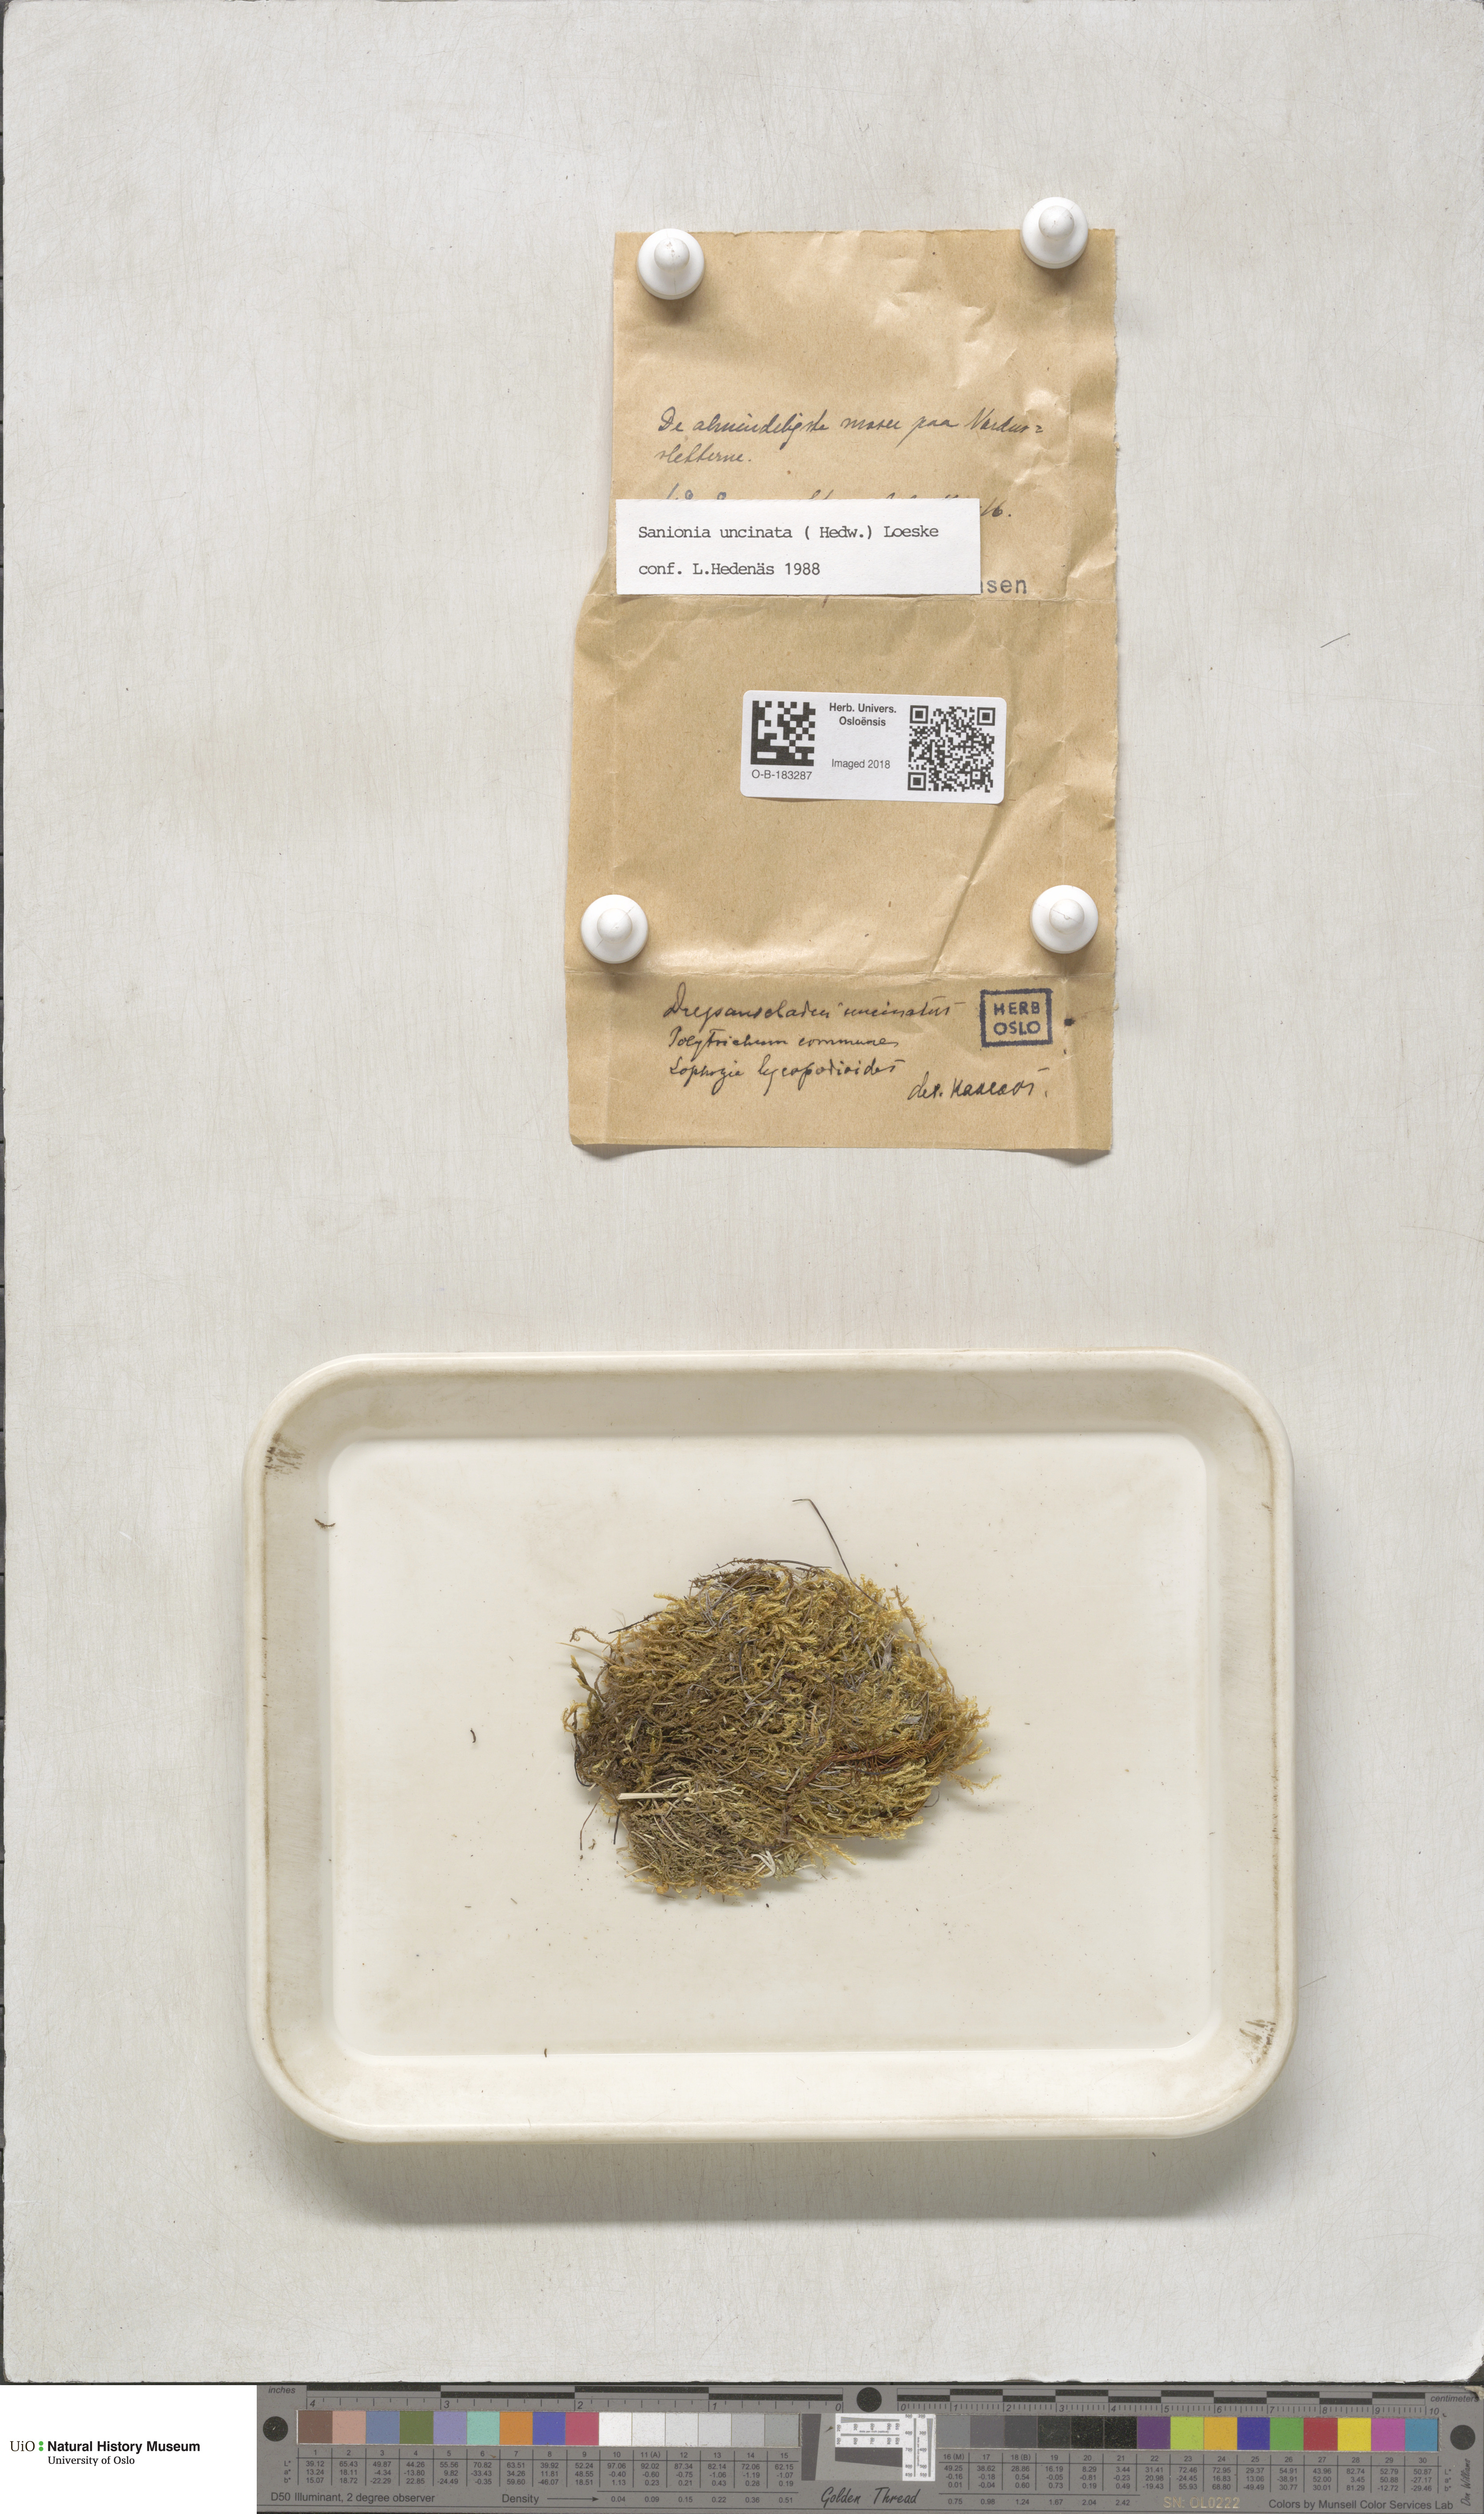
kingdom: Plantae
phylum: Bryophyta
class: Bryopsida
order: Hypnales
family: Scorpidiaceae
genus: Sanionia
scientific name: Sanionia uncinata
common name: Sickle moss
